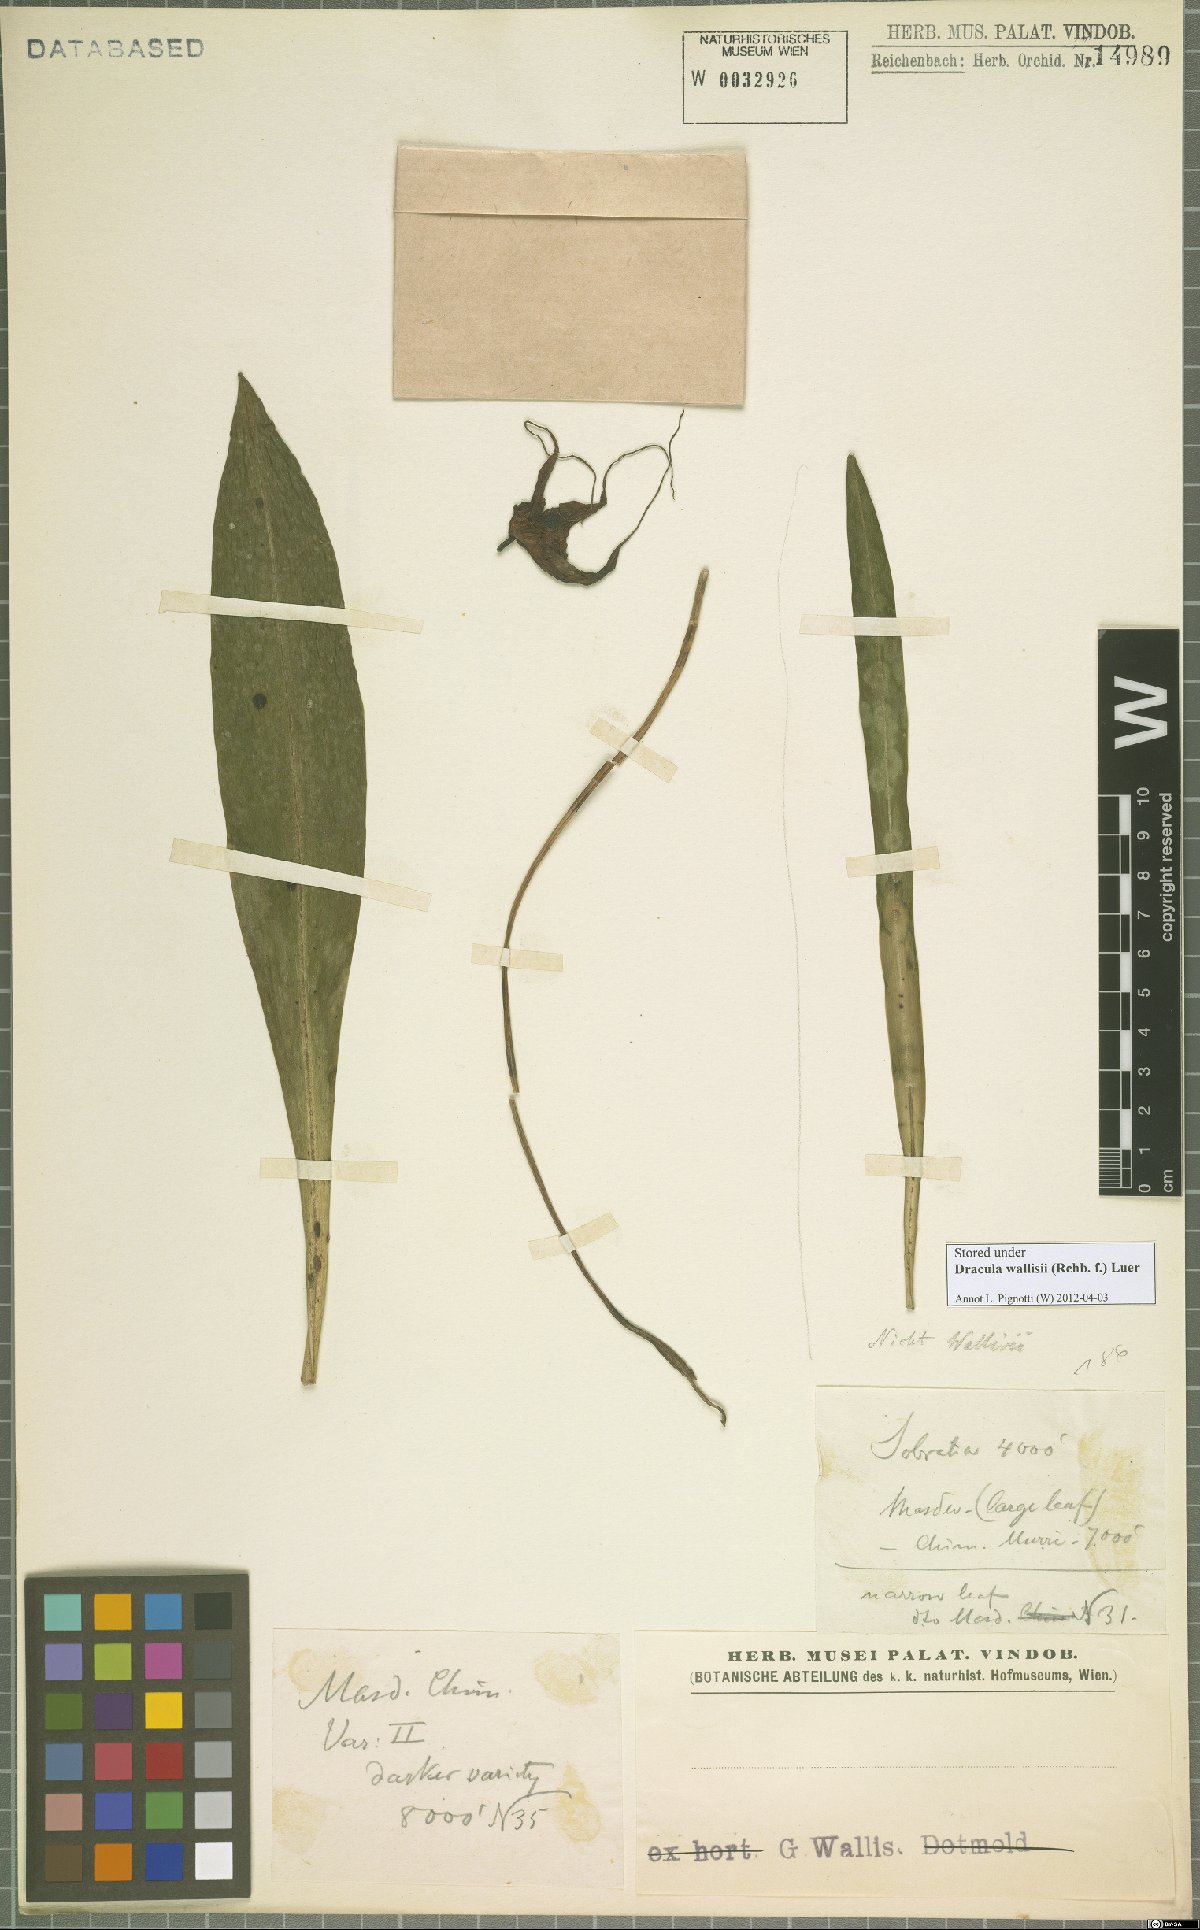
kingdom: Plantae
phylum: Tracheophyta
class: Liliopsida
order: Asparagales
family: Orchidaceae
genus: Dracula
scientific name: Dracula wallisii
